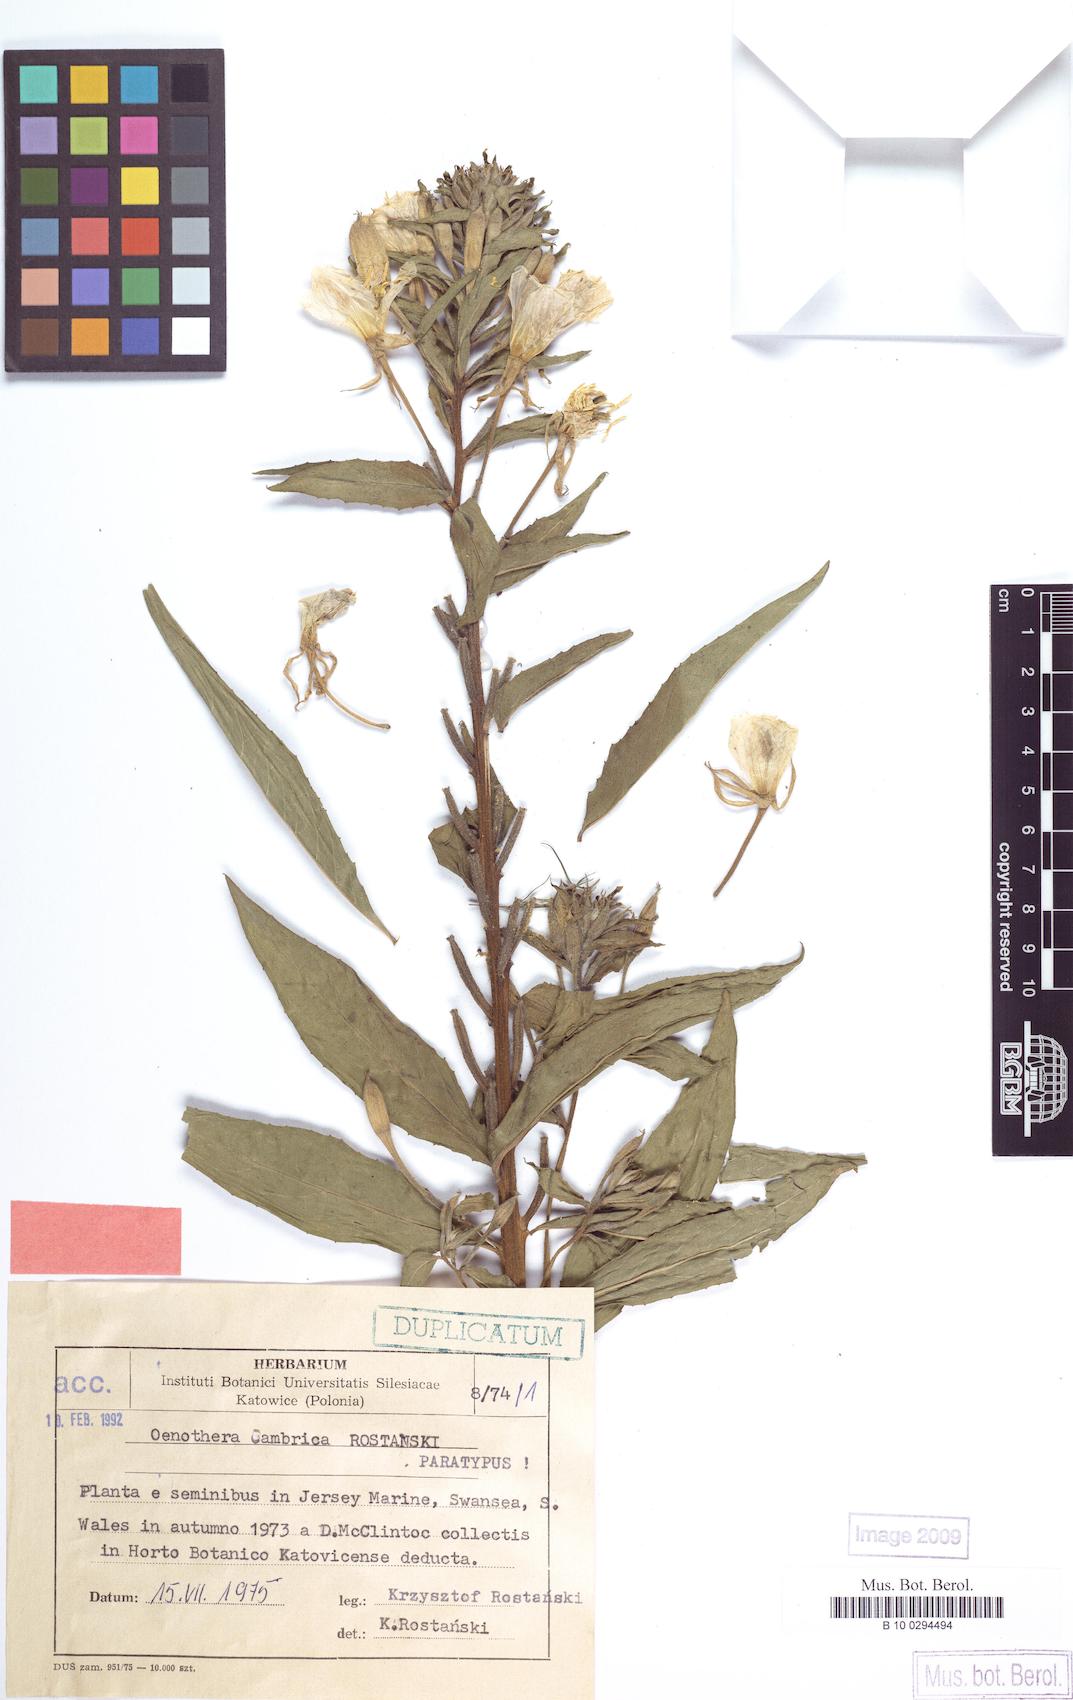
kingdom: Plantae
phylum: Tracheophyta
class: Magnoliopsida
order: Myrtales
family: Onagraceae
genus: Oenothera
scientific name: Oenothera cambrica
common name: Small-flowered evening-primrose
